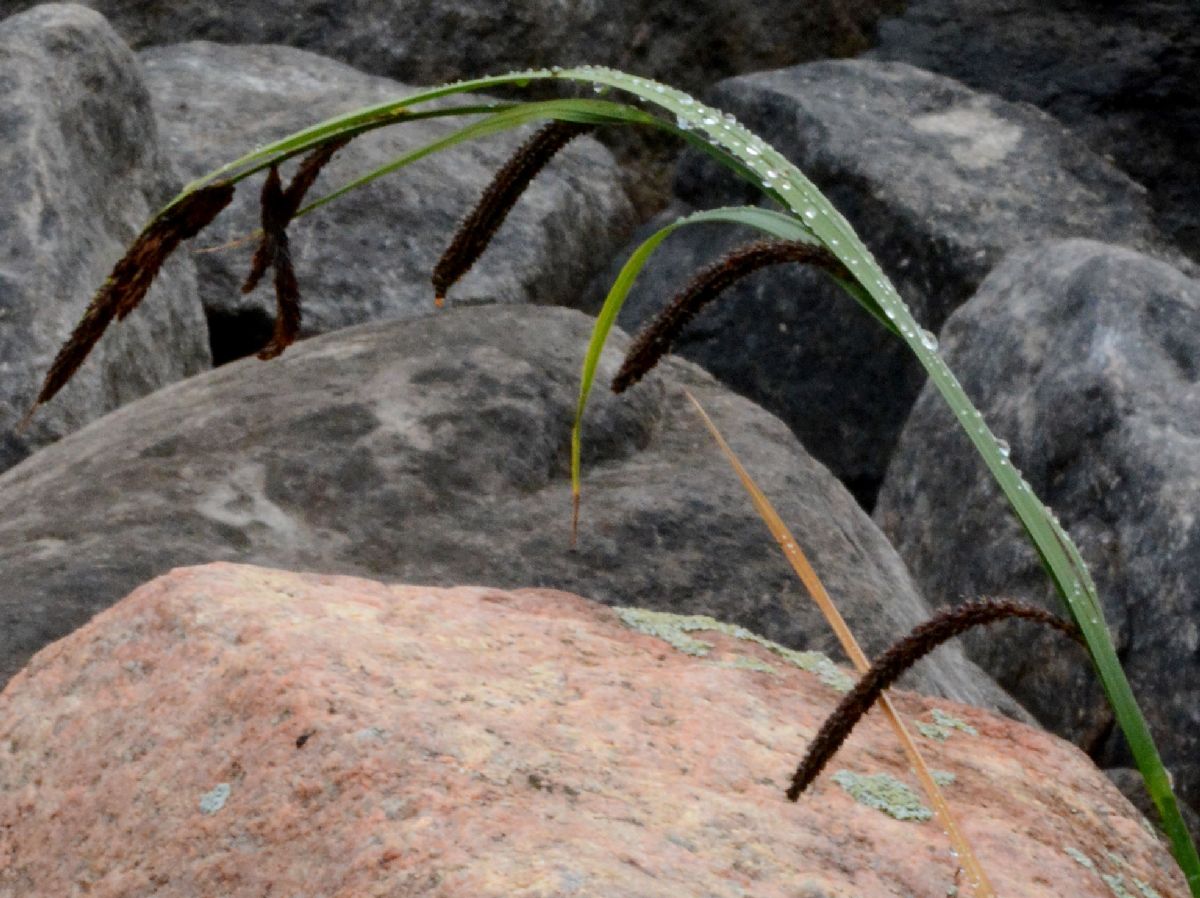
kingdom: Plantae
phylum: Tracheophyta
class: Liliopsida
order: Poales
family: Cyperaceae
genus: Carex
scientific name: Carex acuta
